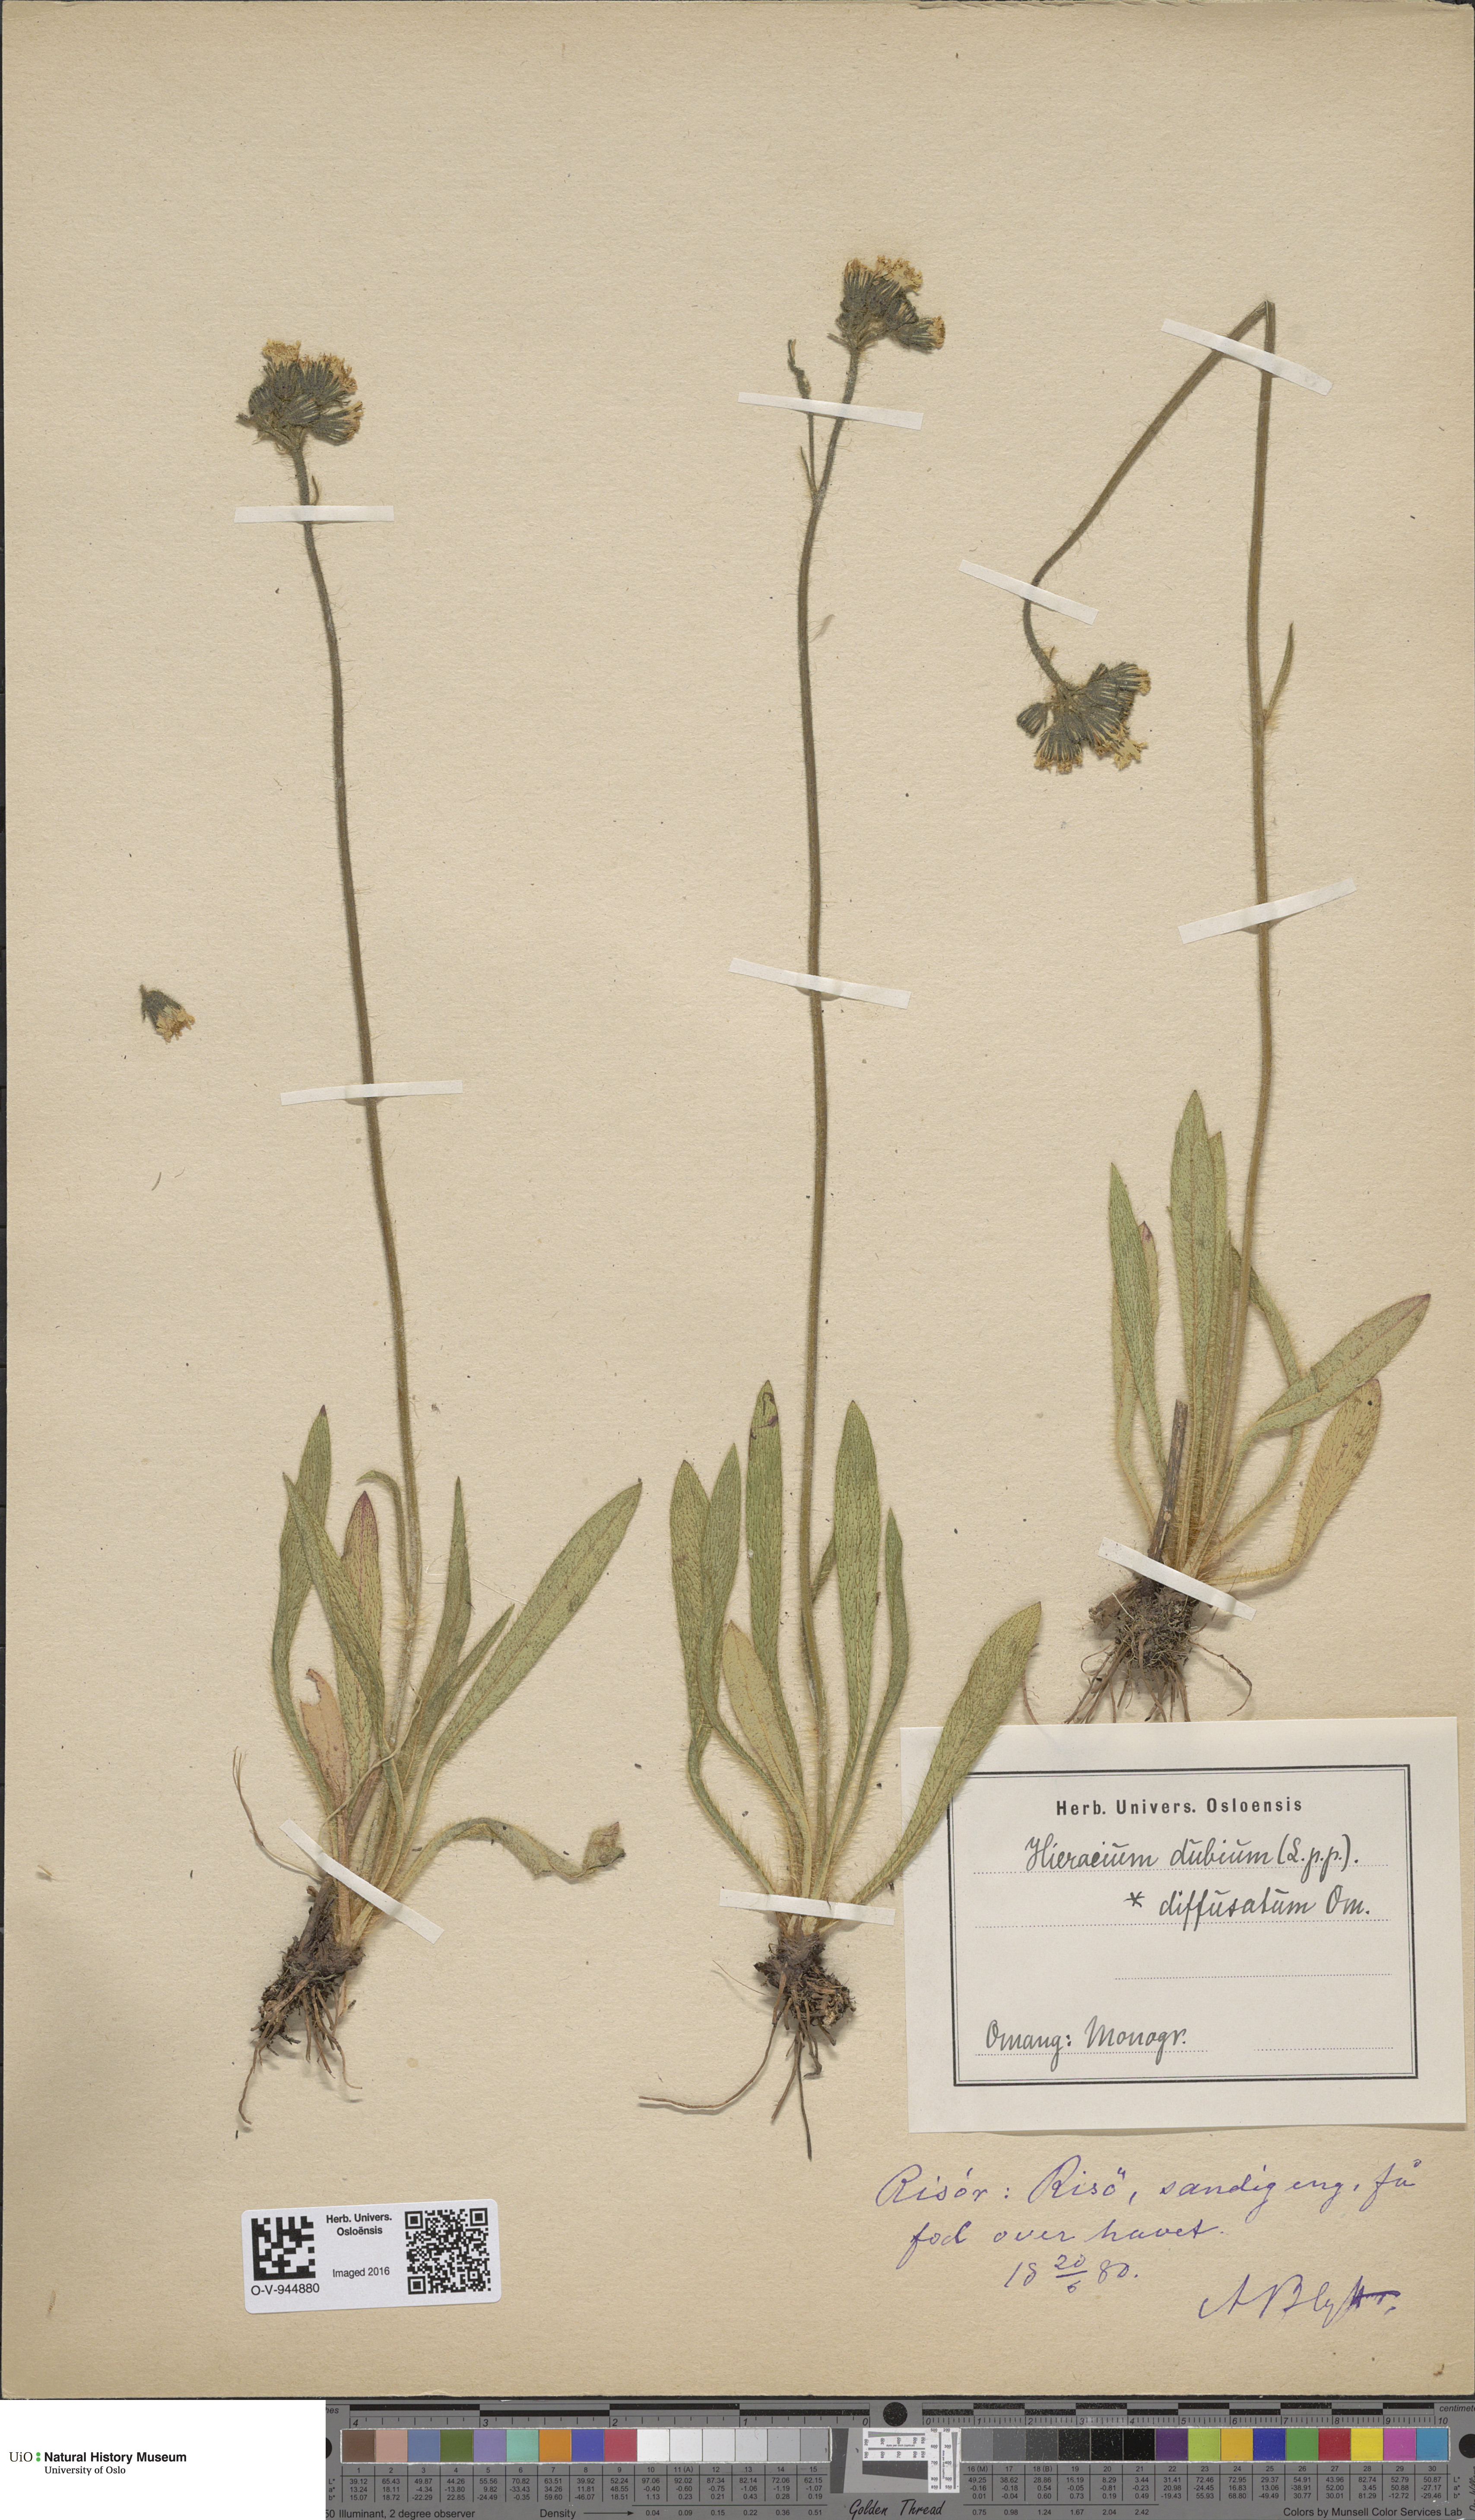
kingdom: Plantae
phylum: Tracheophyta
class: Magnoliopsida
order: Asterales
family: Asteraceae
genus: Pilosella
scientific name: Pilosella dubia
